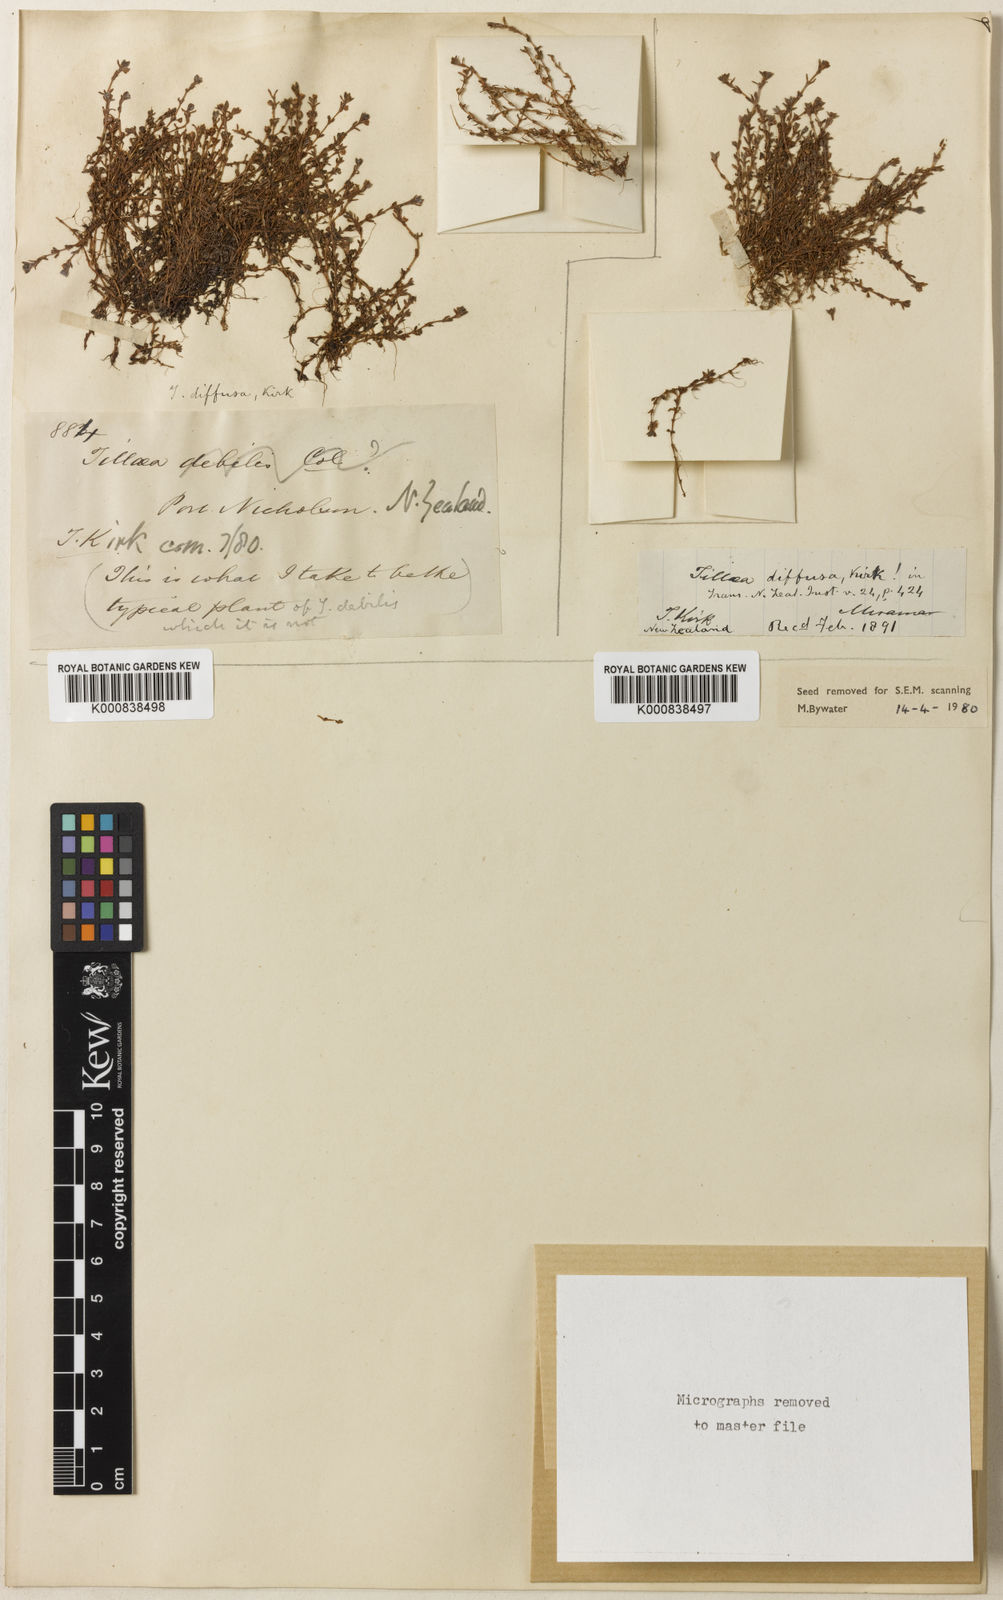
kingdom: Plantae
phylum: Tracheophyta
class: Magnoliopsida
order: Saxifragales
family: Crassulaceae
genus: Crassula
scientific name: Crassula
